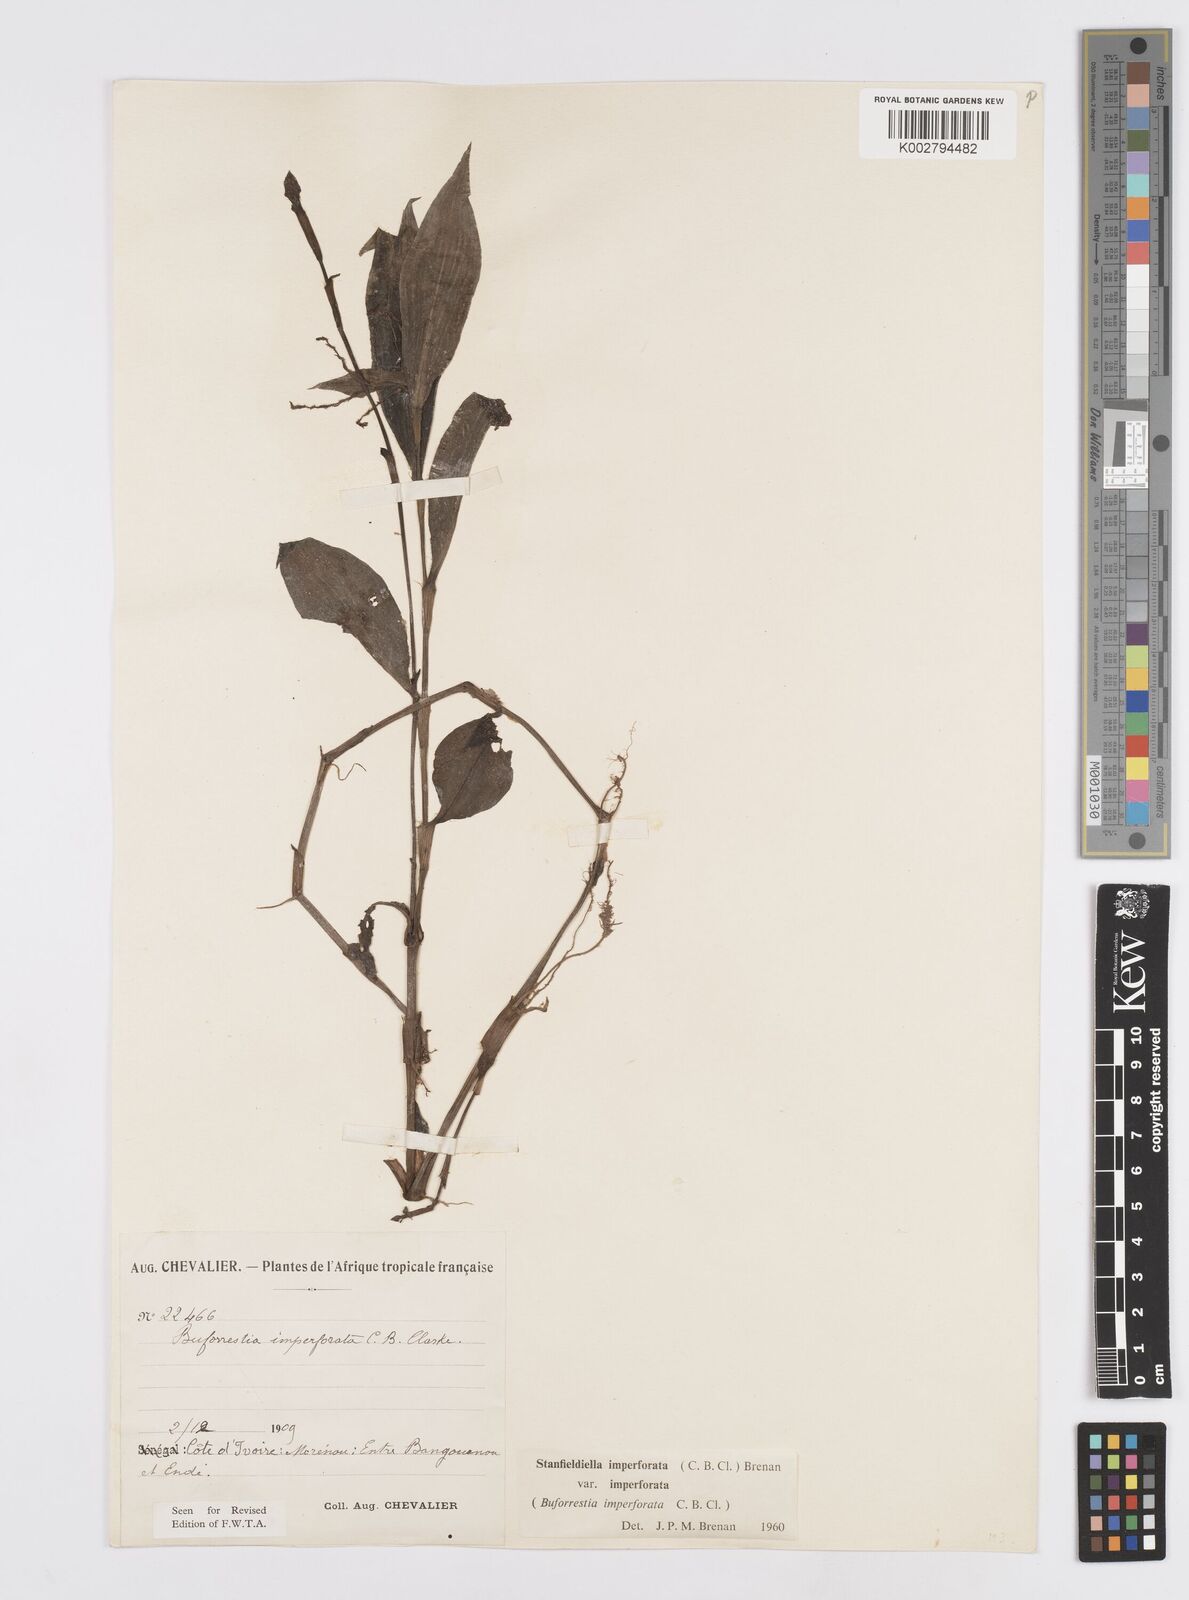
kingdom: Plantae
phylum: Tracheophyta
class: Liliopsida
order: Commelinales
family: Commelinaceae
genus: Stanfieldiella
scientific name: Stanfieldiella imperforata
